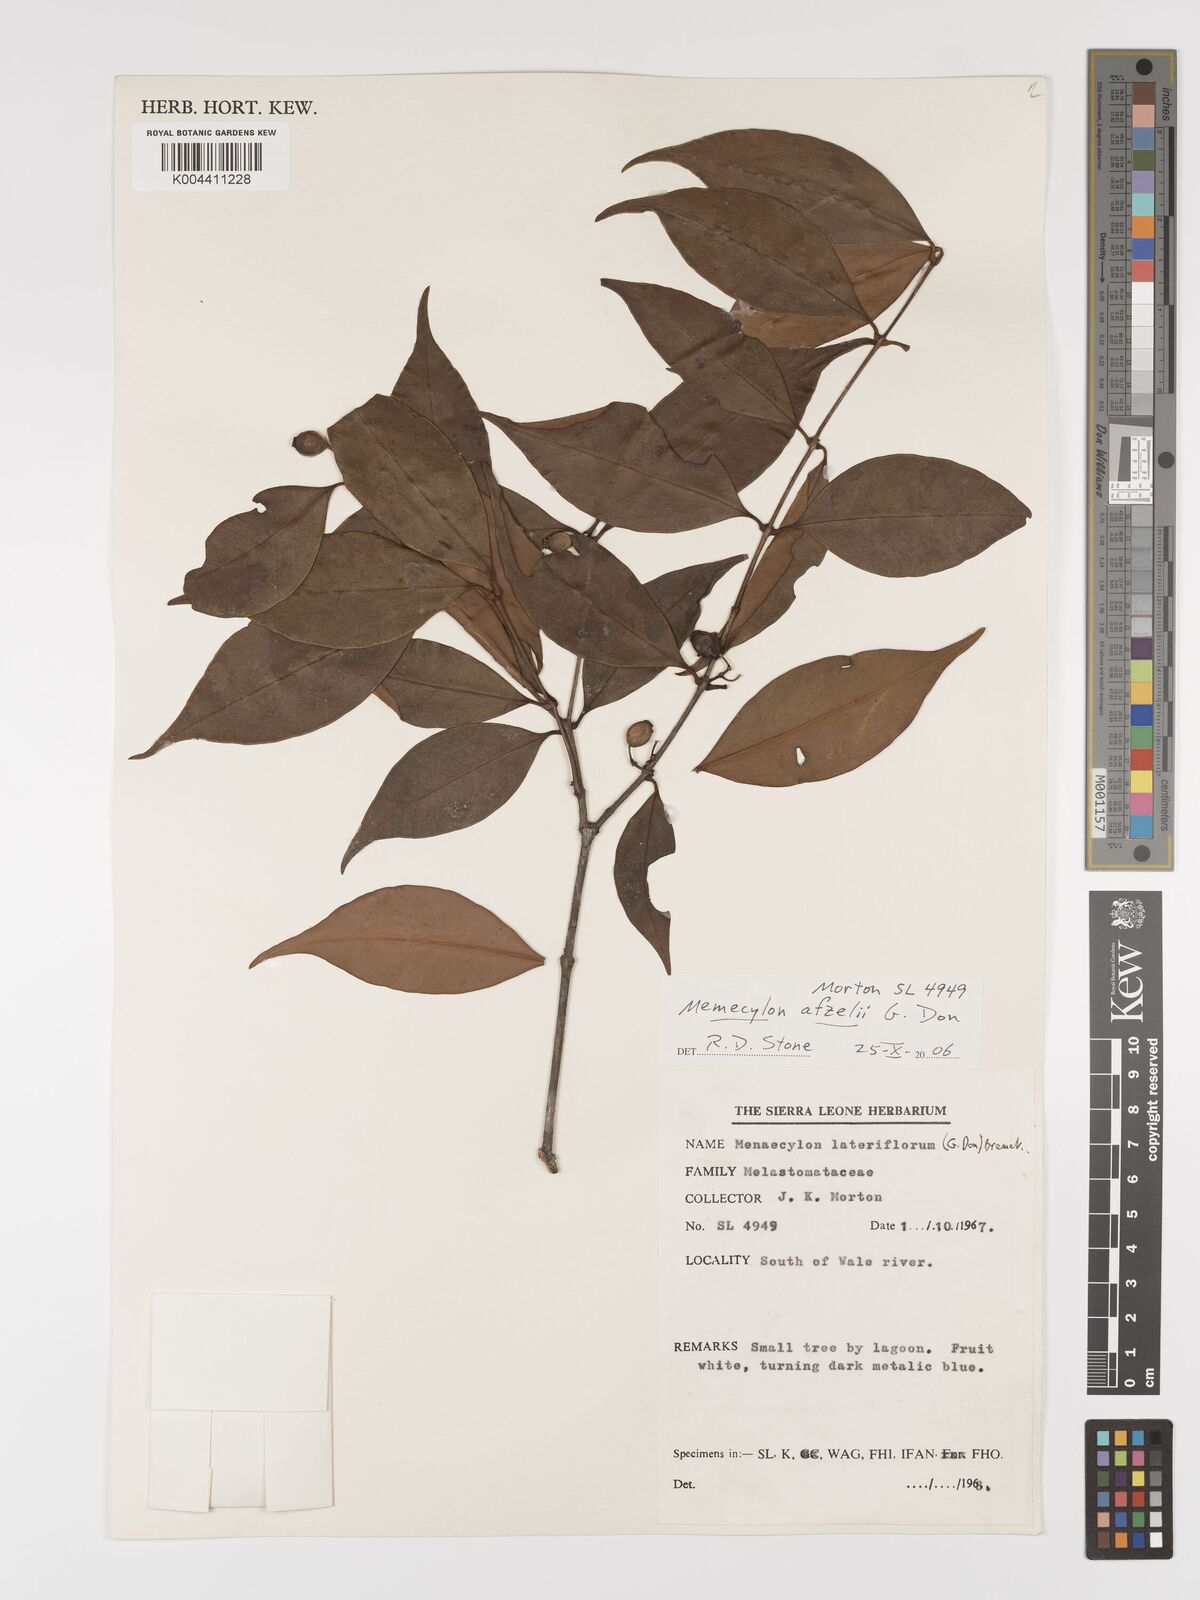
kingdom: Plantae
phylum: Tracheophyta
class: Magnoliopsida
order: Myrtales
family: Melastomataceae
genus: Memecylon
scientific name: Memecylon afzelii
